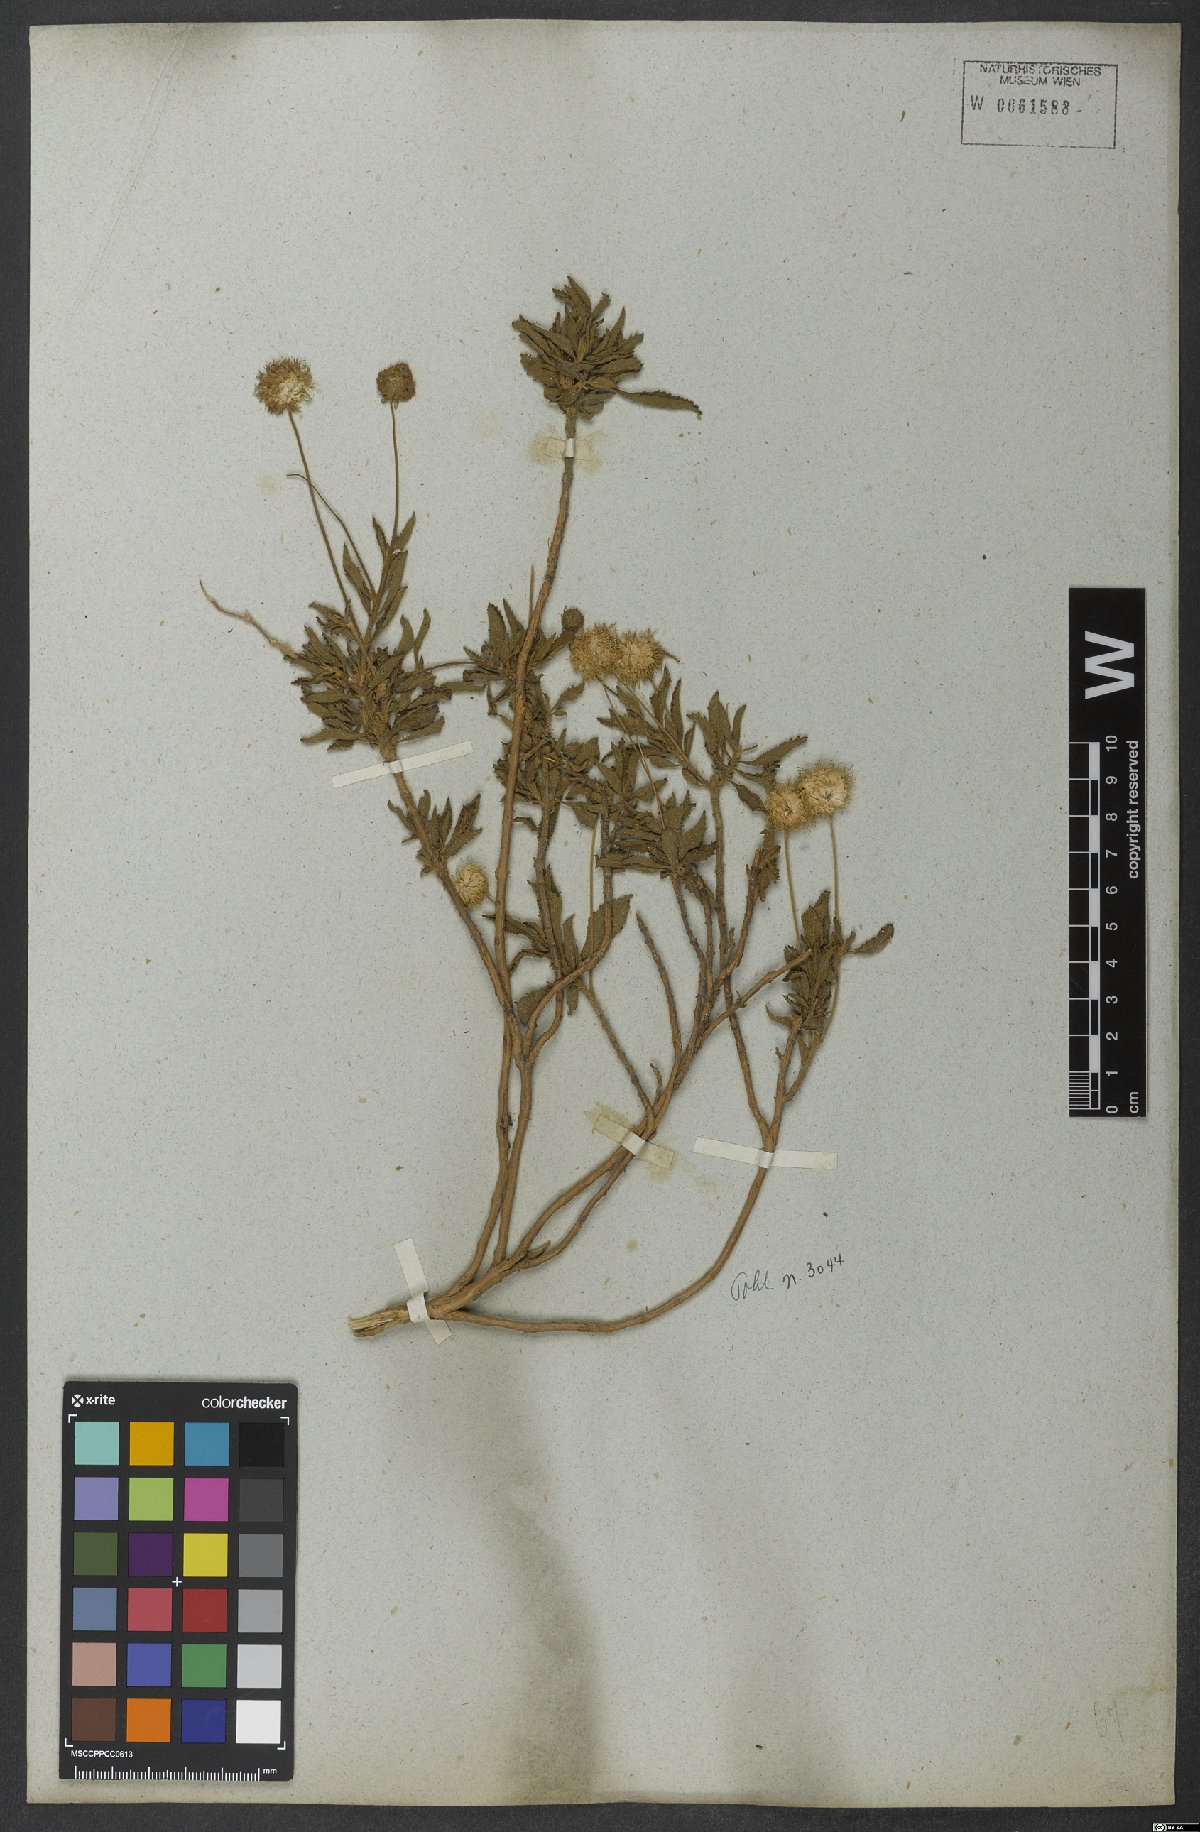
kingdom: Plantae
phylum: Tracheophyta
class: Magnoliopsida
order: Lamiales
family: Lamiaceae
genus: Cyanocephalus
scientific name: Cyanocephalus rugosus
